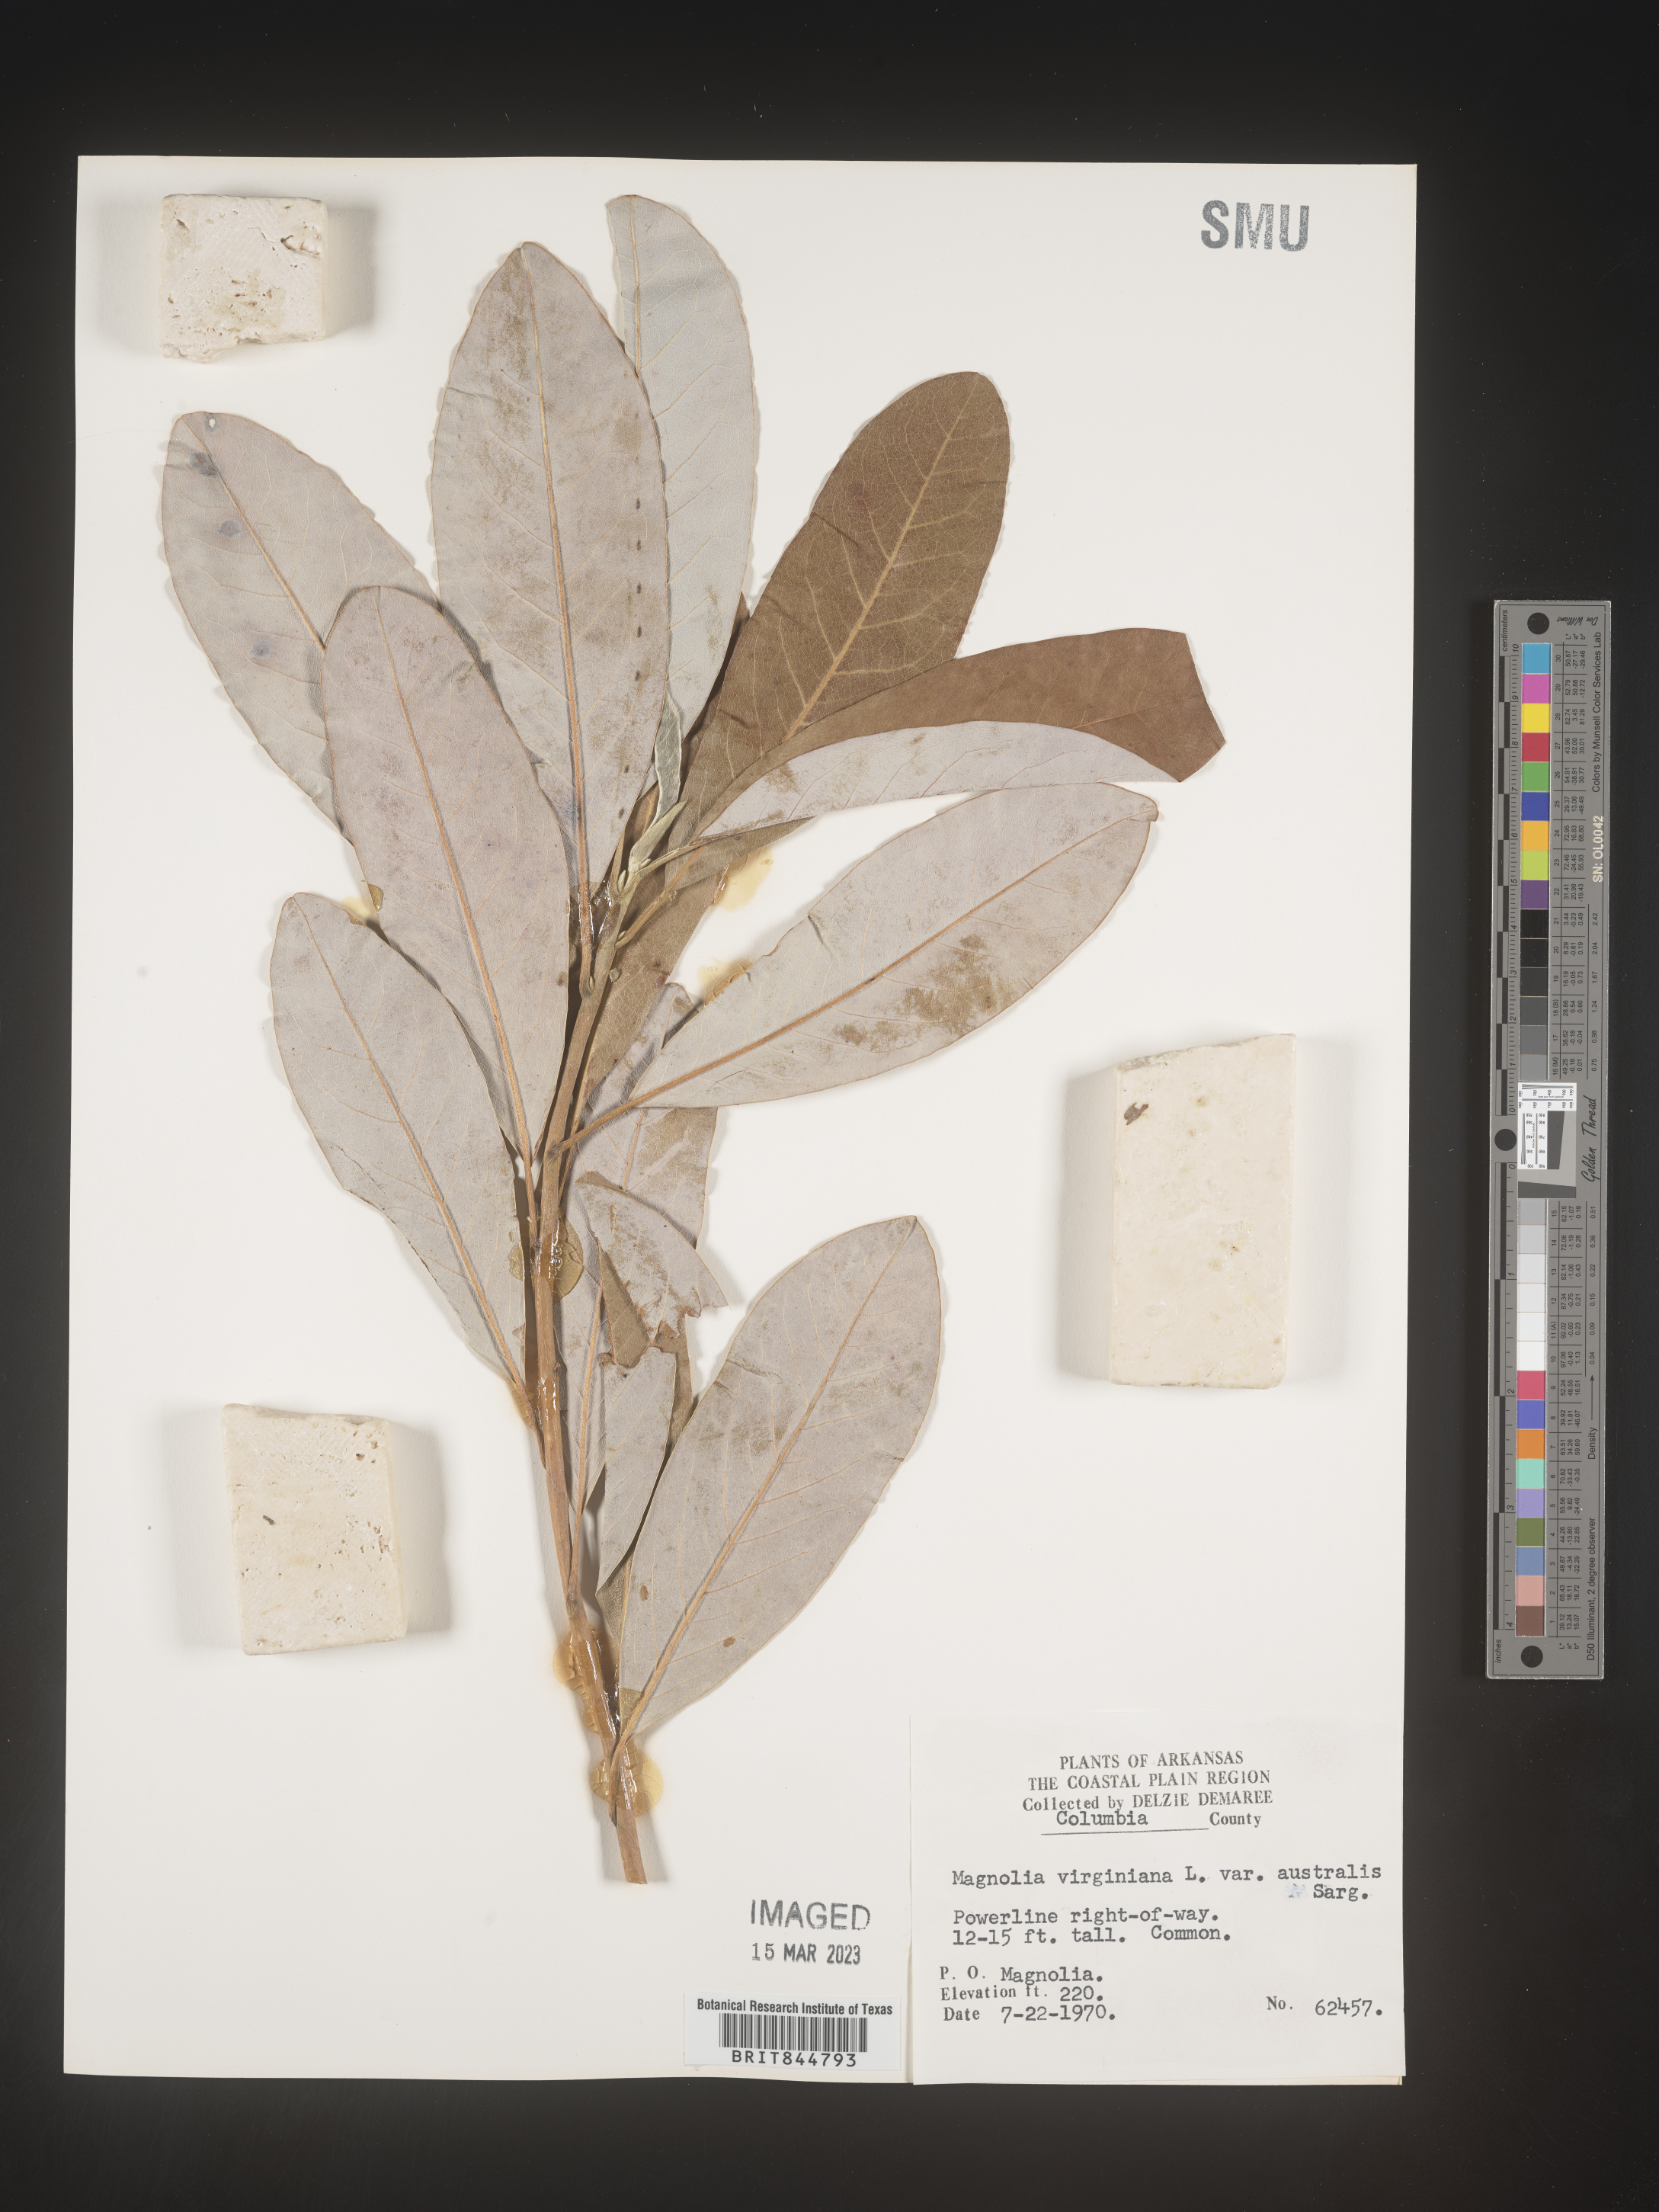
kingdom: Plantae
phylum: Tracheophyta
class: Magnoliopsida
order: Magnoliales
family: Magnoliaceae
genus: Magnolia
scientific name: Magnolia virginiana
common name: Swamp bay
